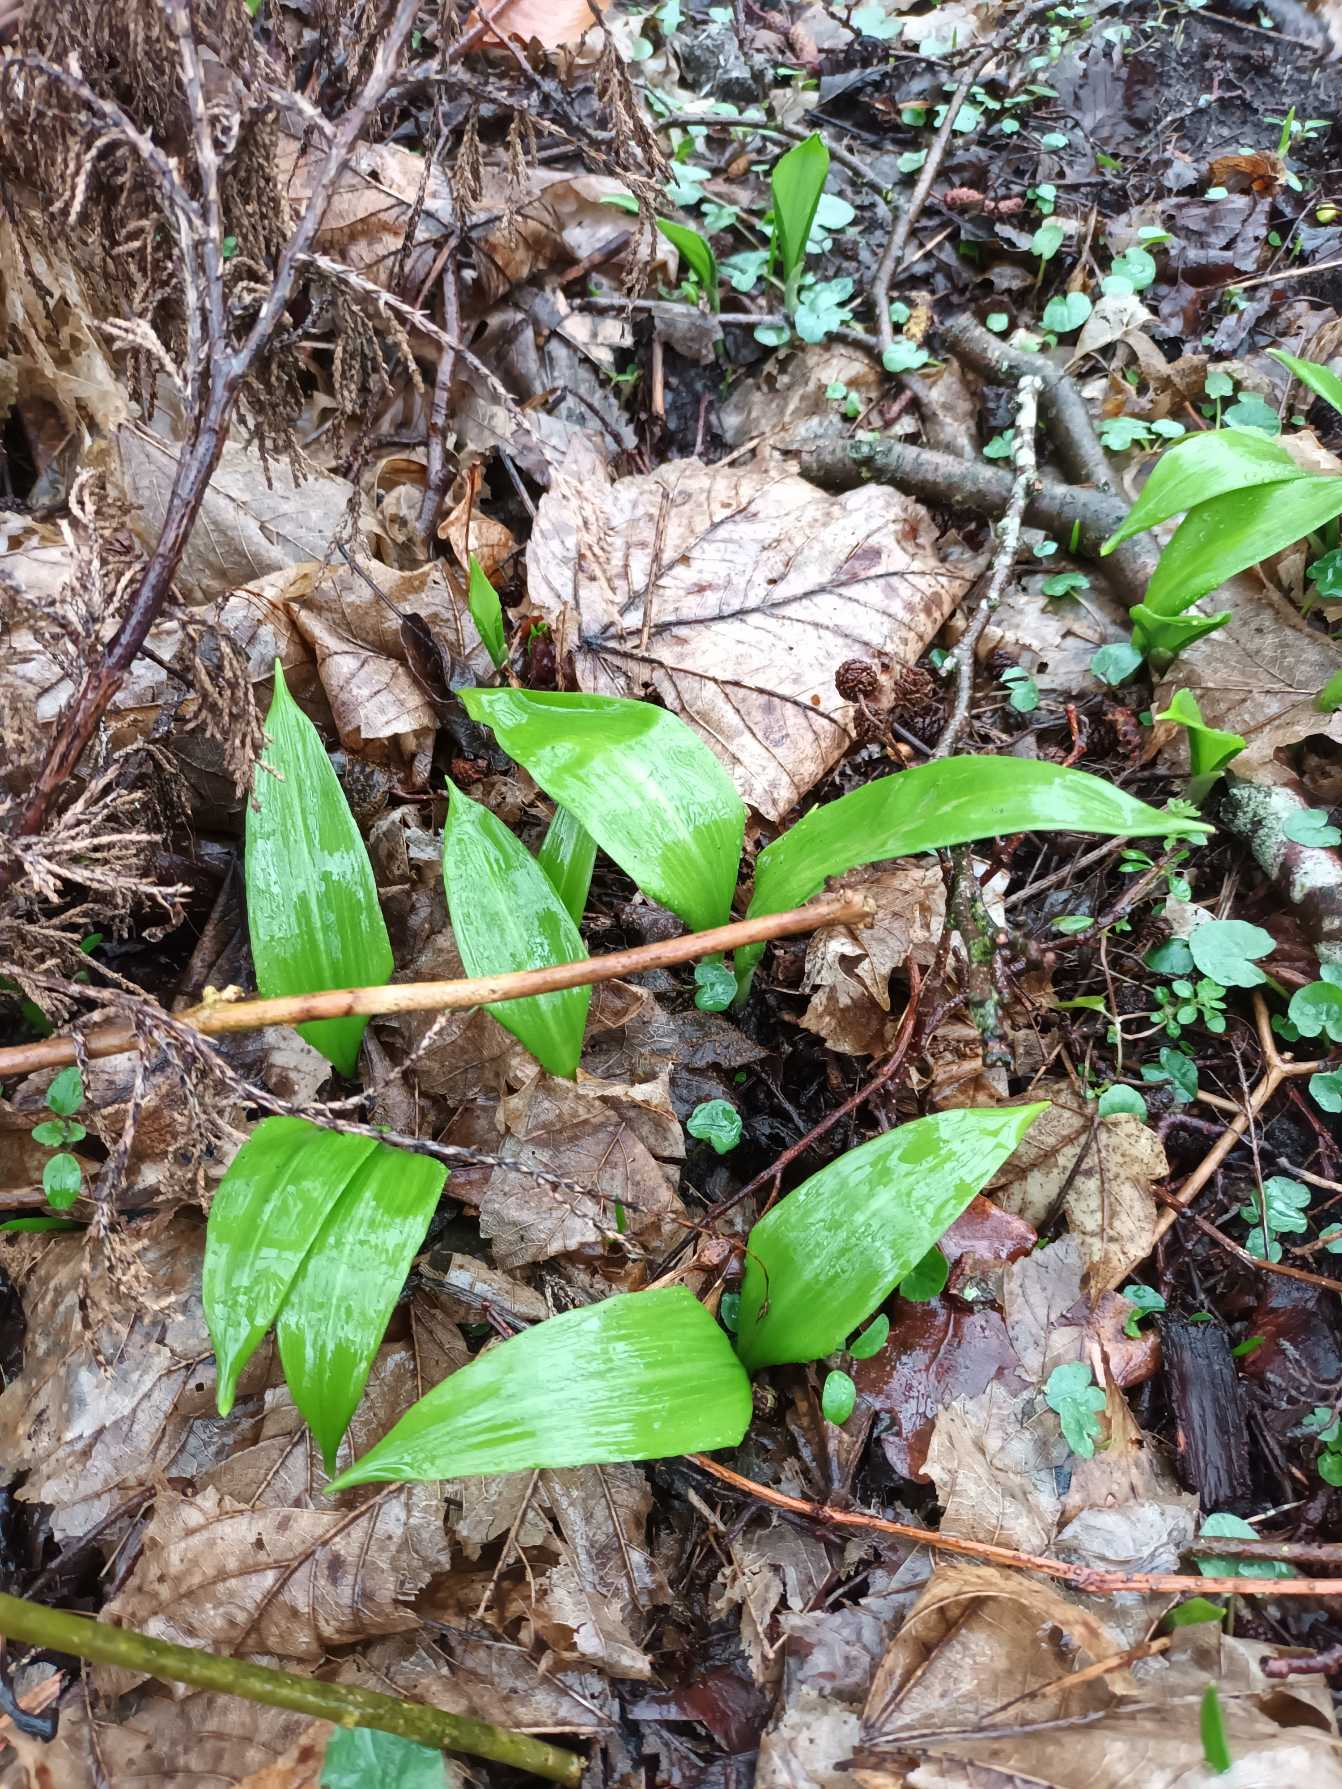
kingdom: Plantae
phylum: Tracheophyta
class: Liliopsida
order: Asparagales
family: Amaryllidaceae
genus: Allium
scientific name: Allium ursinum
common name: Rams-løg
